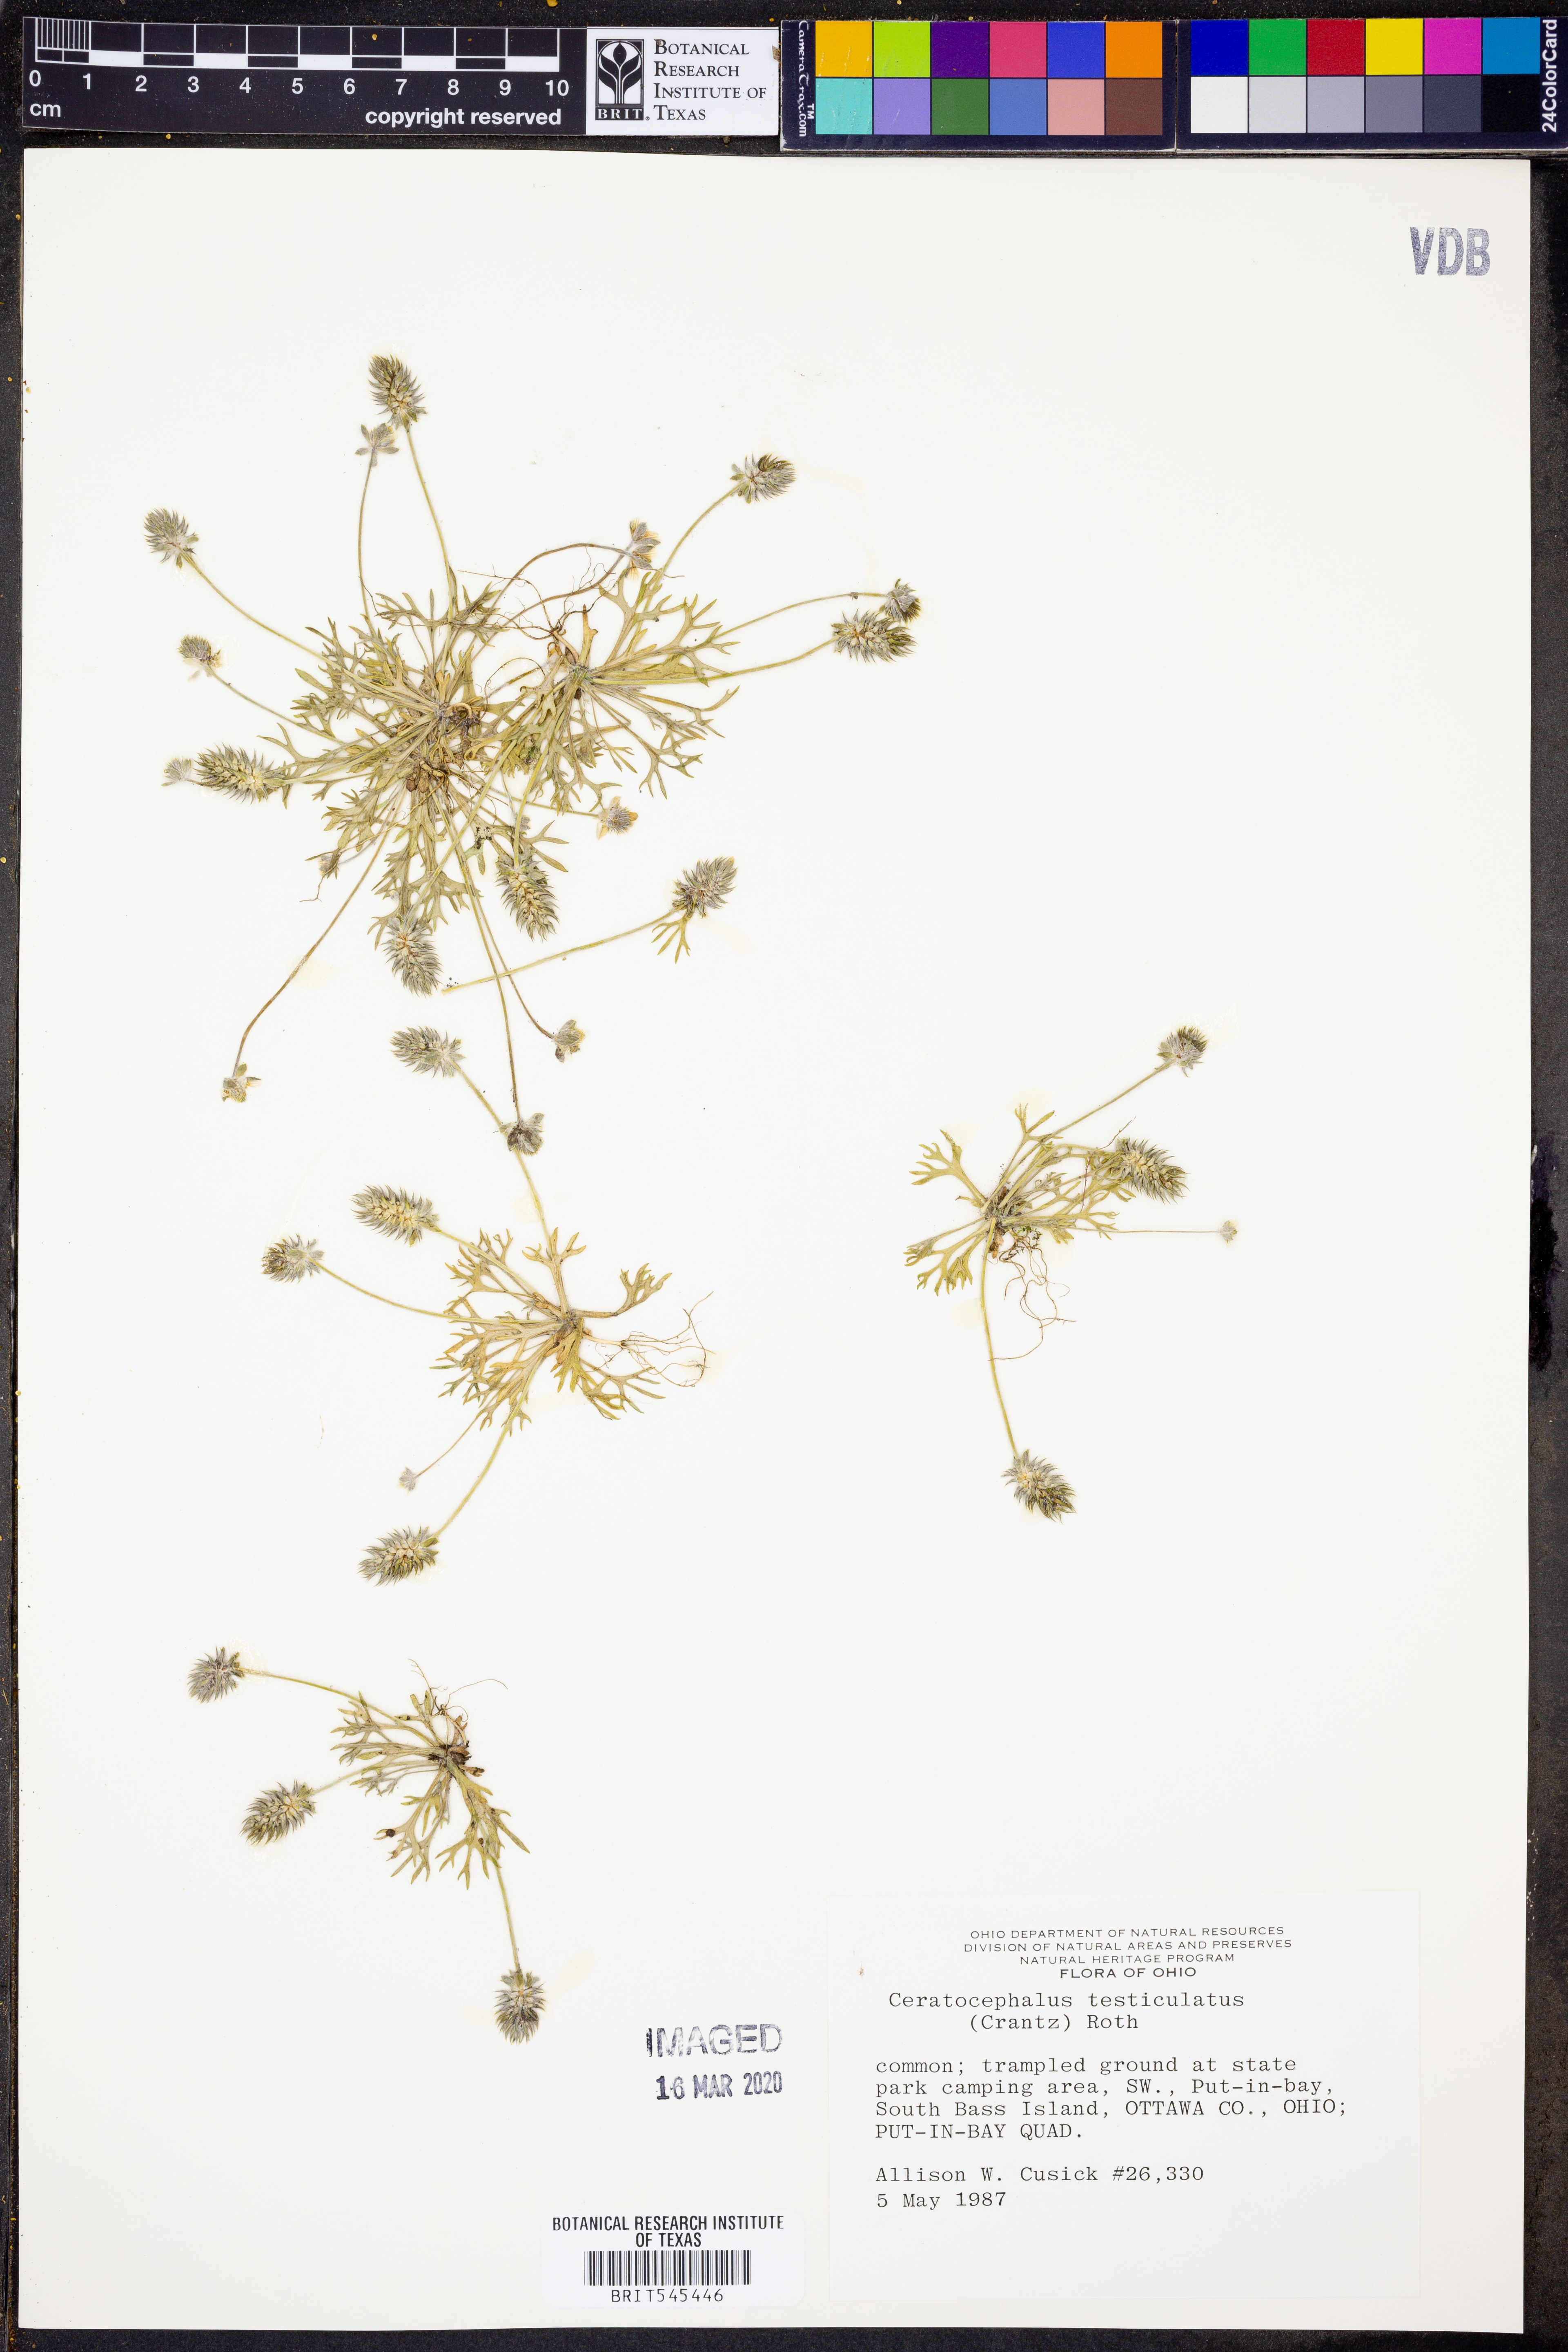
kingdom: Plantae
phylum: Tracheophyta
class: Magnoliopsida
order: Ranunculales
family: Ranunculaceae
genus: Ceratocephala
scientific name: Ceratocephala orthoceras
